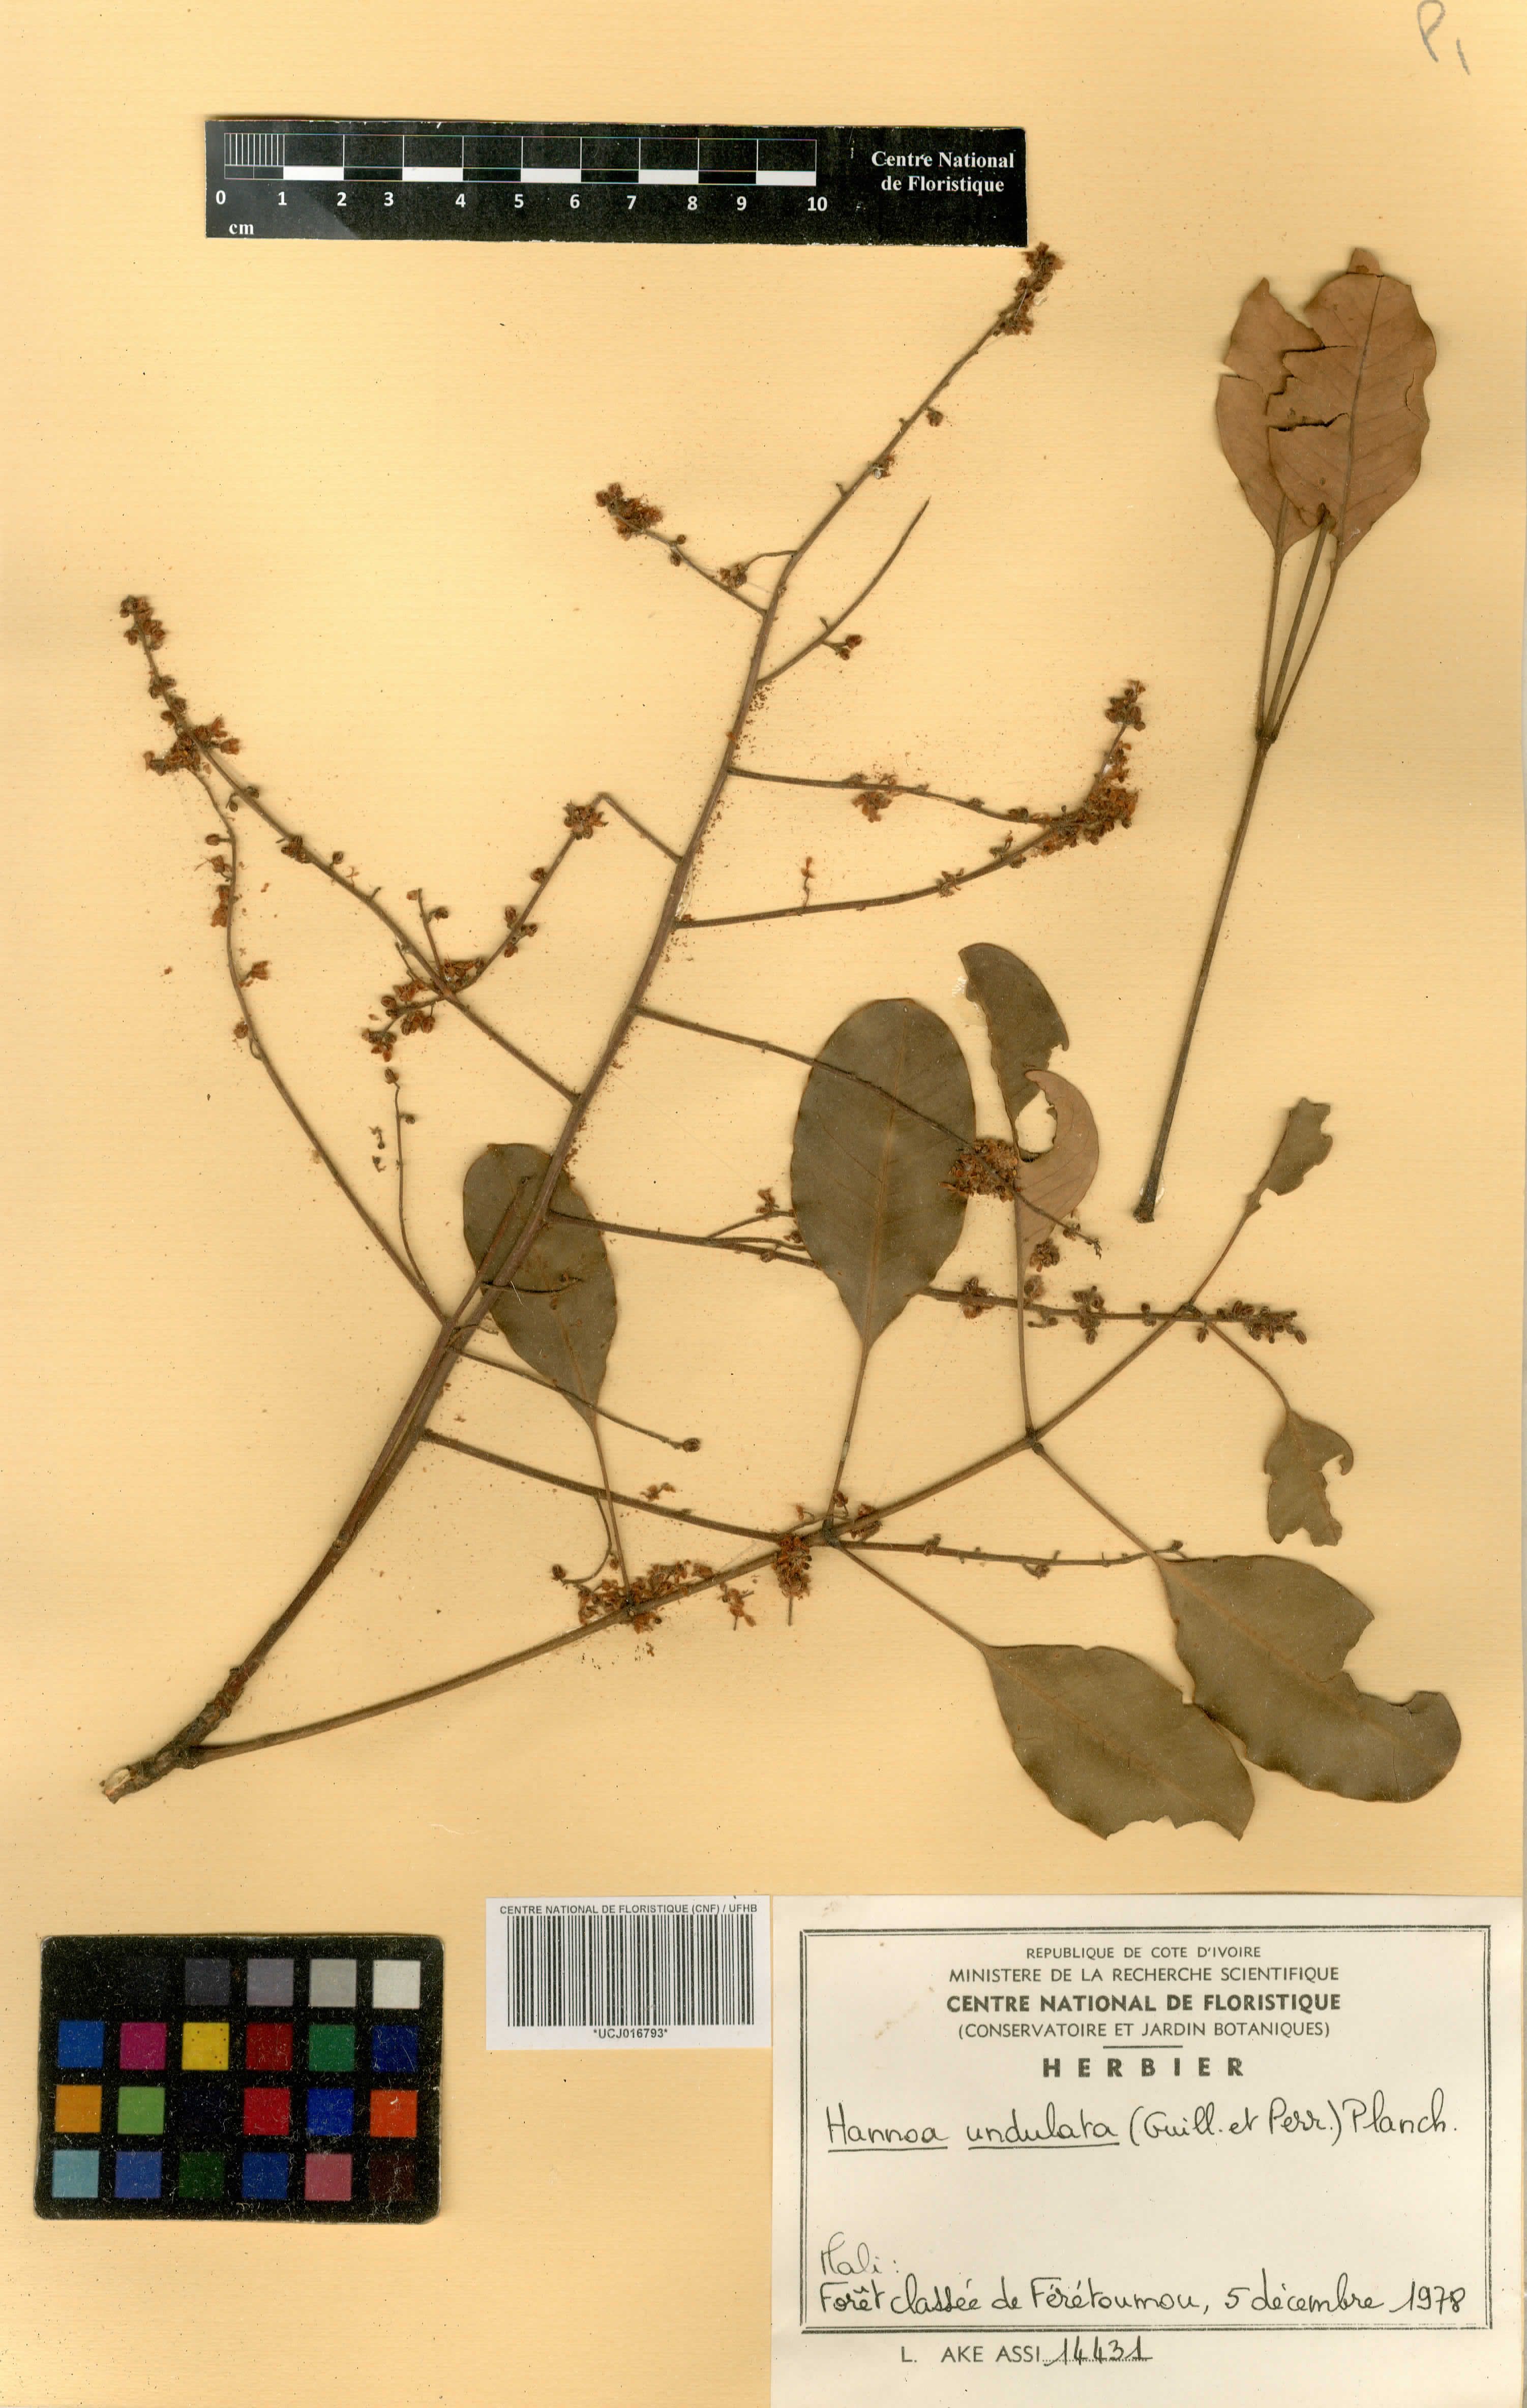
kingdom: Plantae
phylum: Tracheophyta
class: Magnoliopsida
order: Sapindales
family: Simaroubaceae
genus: Odyendyea
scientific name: Odyendyea klaineana
